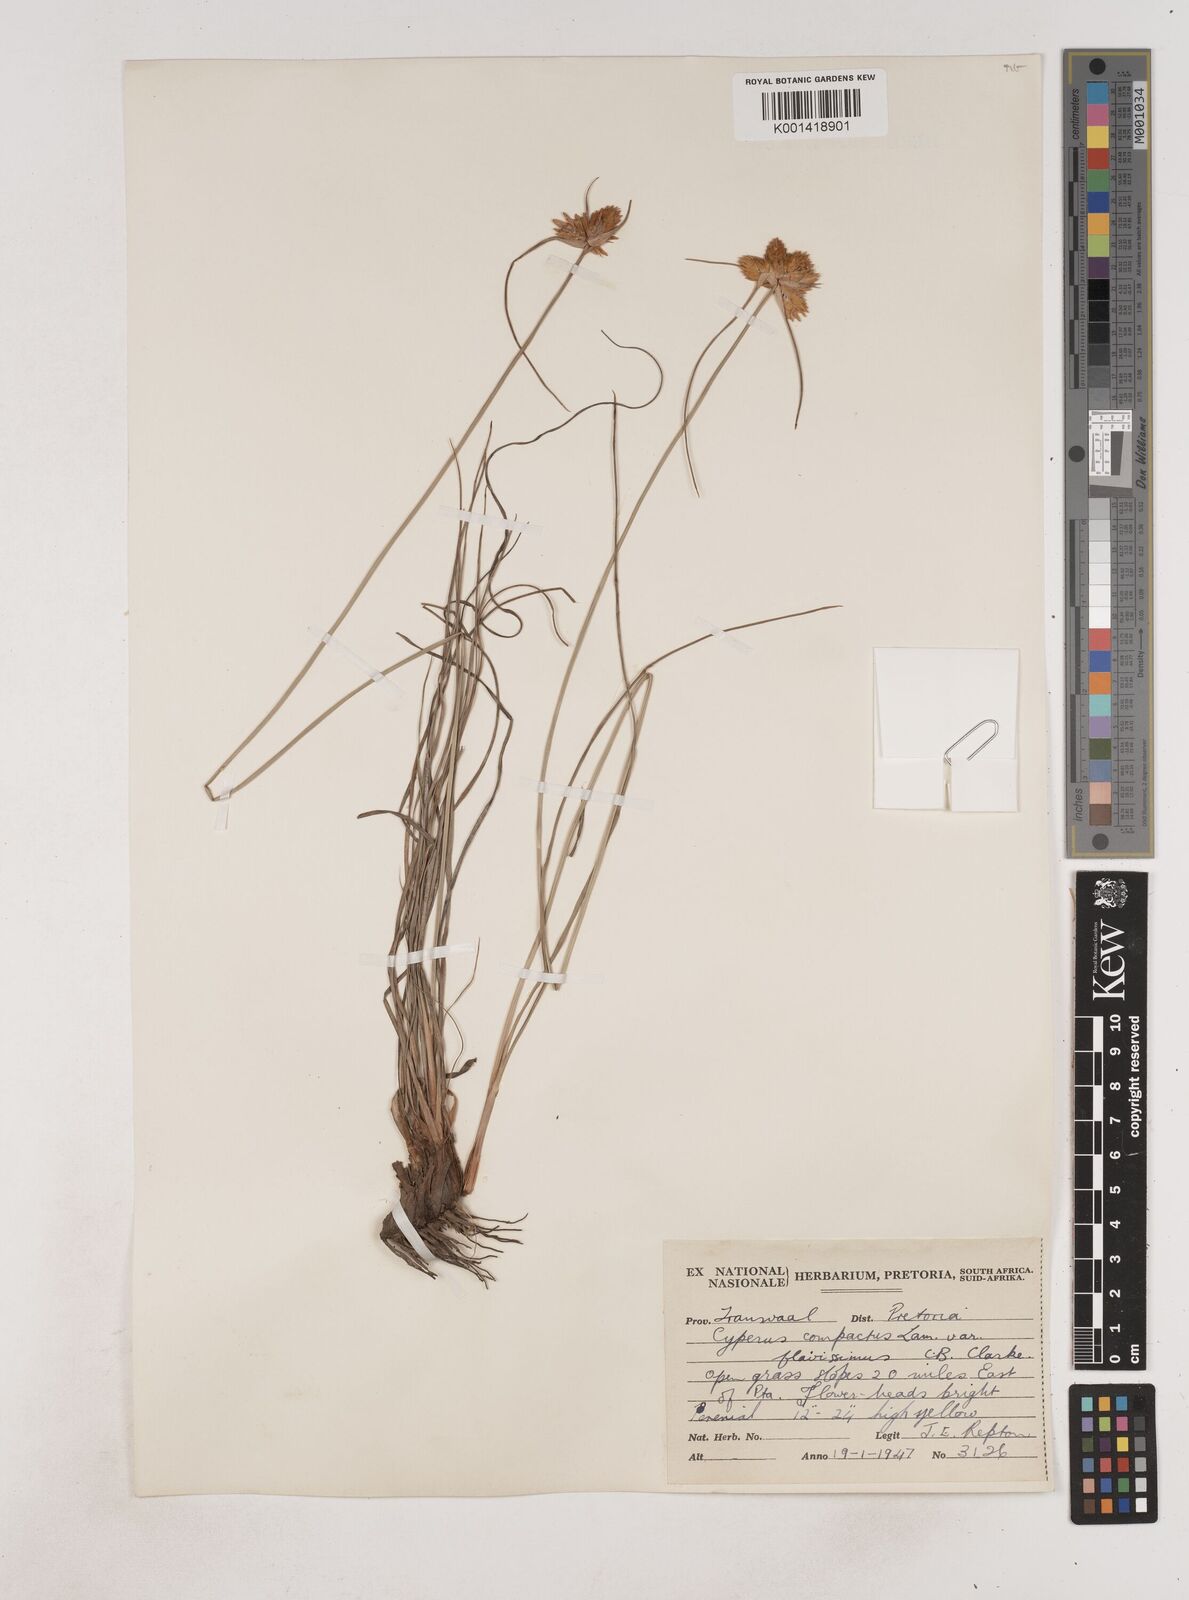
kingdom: Plantae
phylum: Tracheophyta
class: Liliopsida
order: Poales
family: Cyperaceae
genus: Cyperus
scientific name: Cyperus sphaerocephalus
